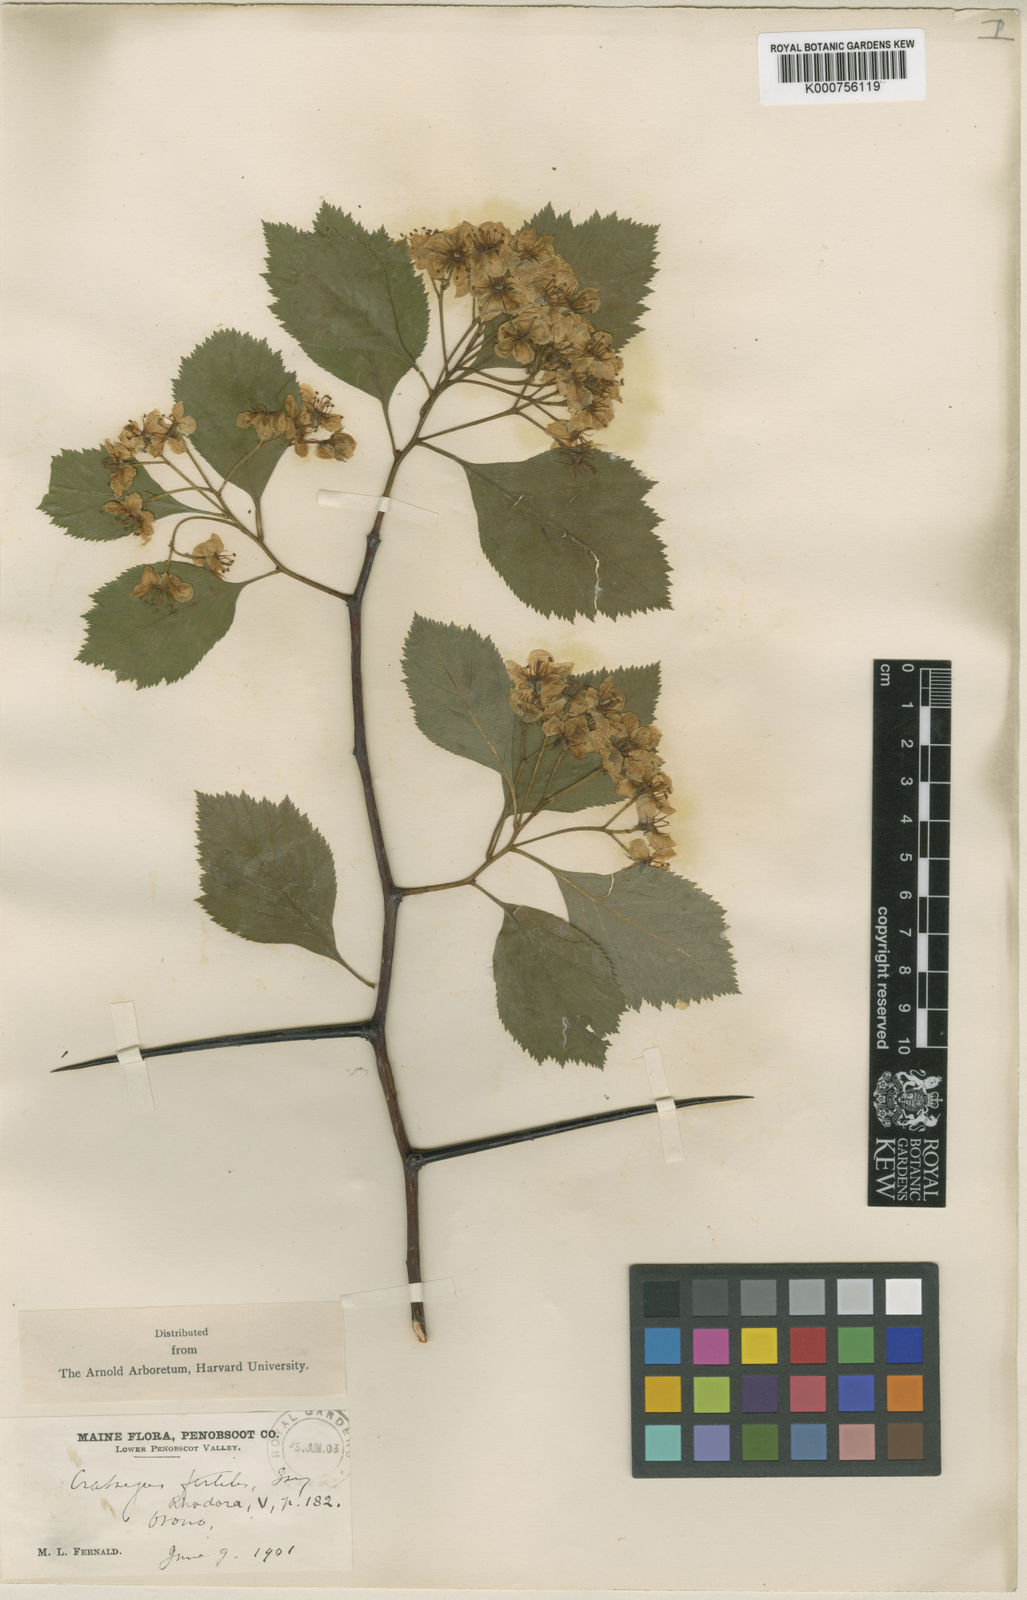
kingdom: Plantae
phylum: Tracheophyta
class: Magnoliopsida
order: Rosales
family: Rosaceae
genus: Crataegus
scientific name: Crataegus fertilis
